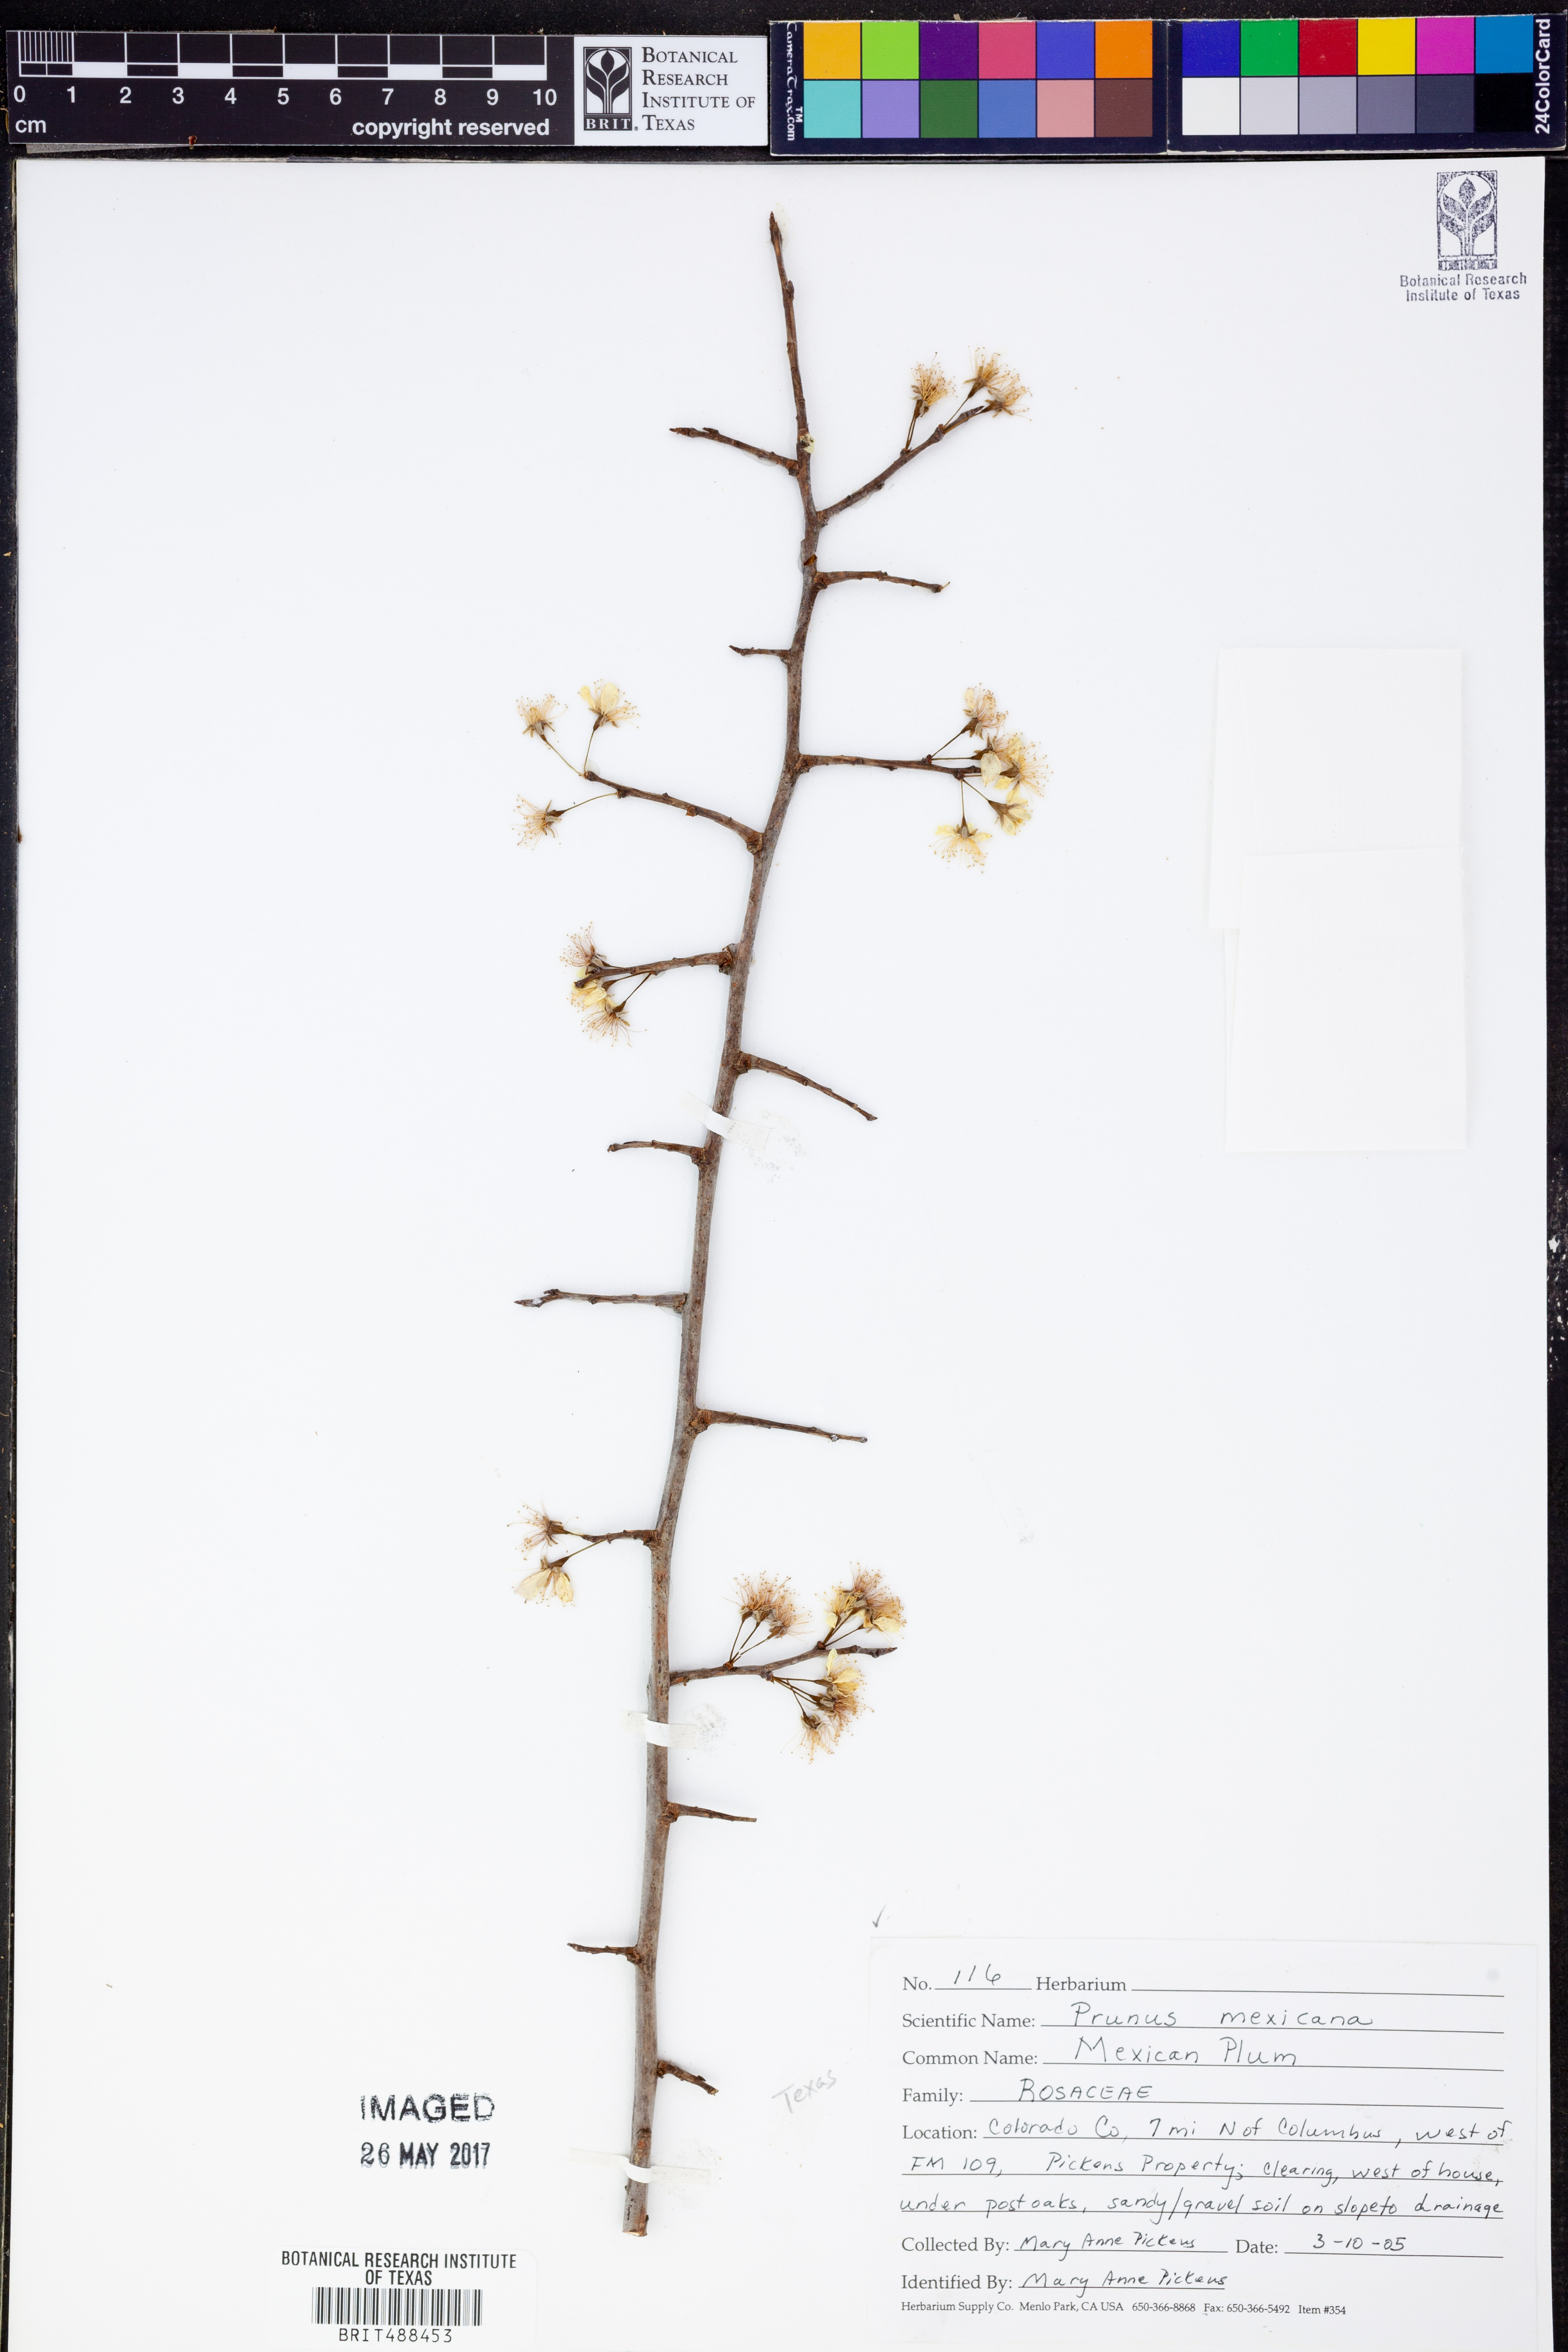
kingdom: Plantae
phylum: Tracheophyta
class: Magnoliopsida
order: Rosales
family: Rosaceae
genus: Prunus
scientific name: Prunus mexicana
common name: Mexican plum
